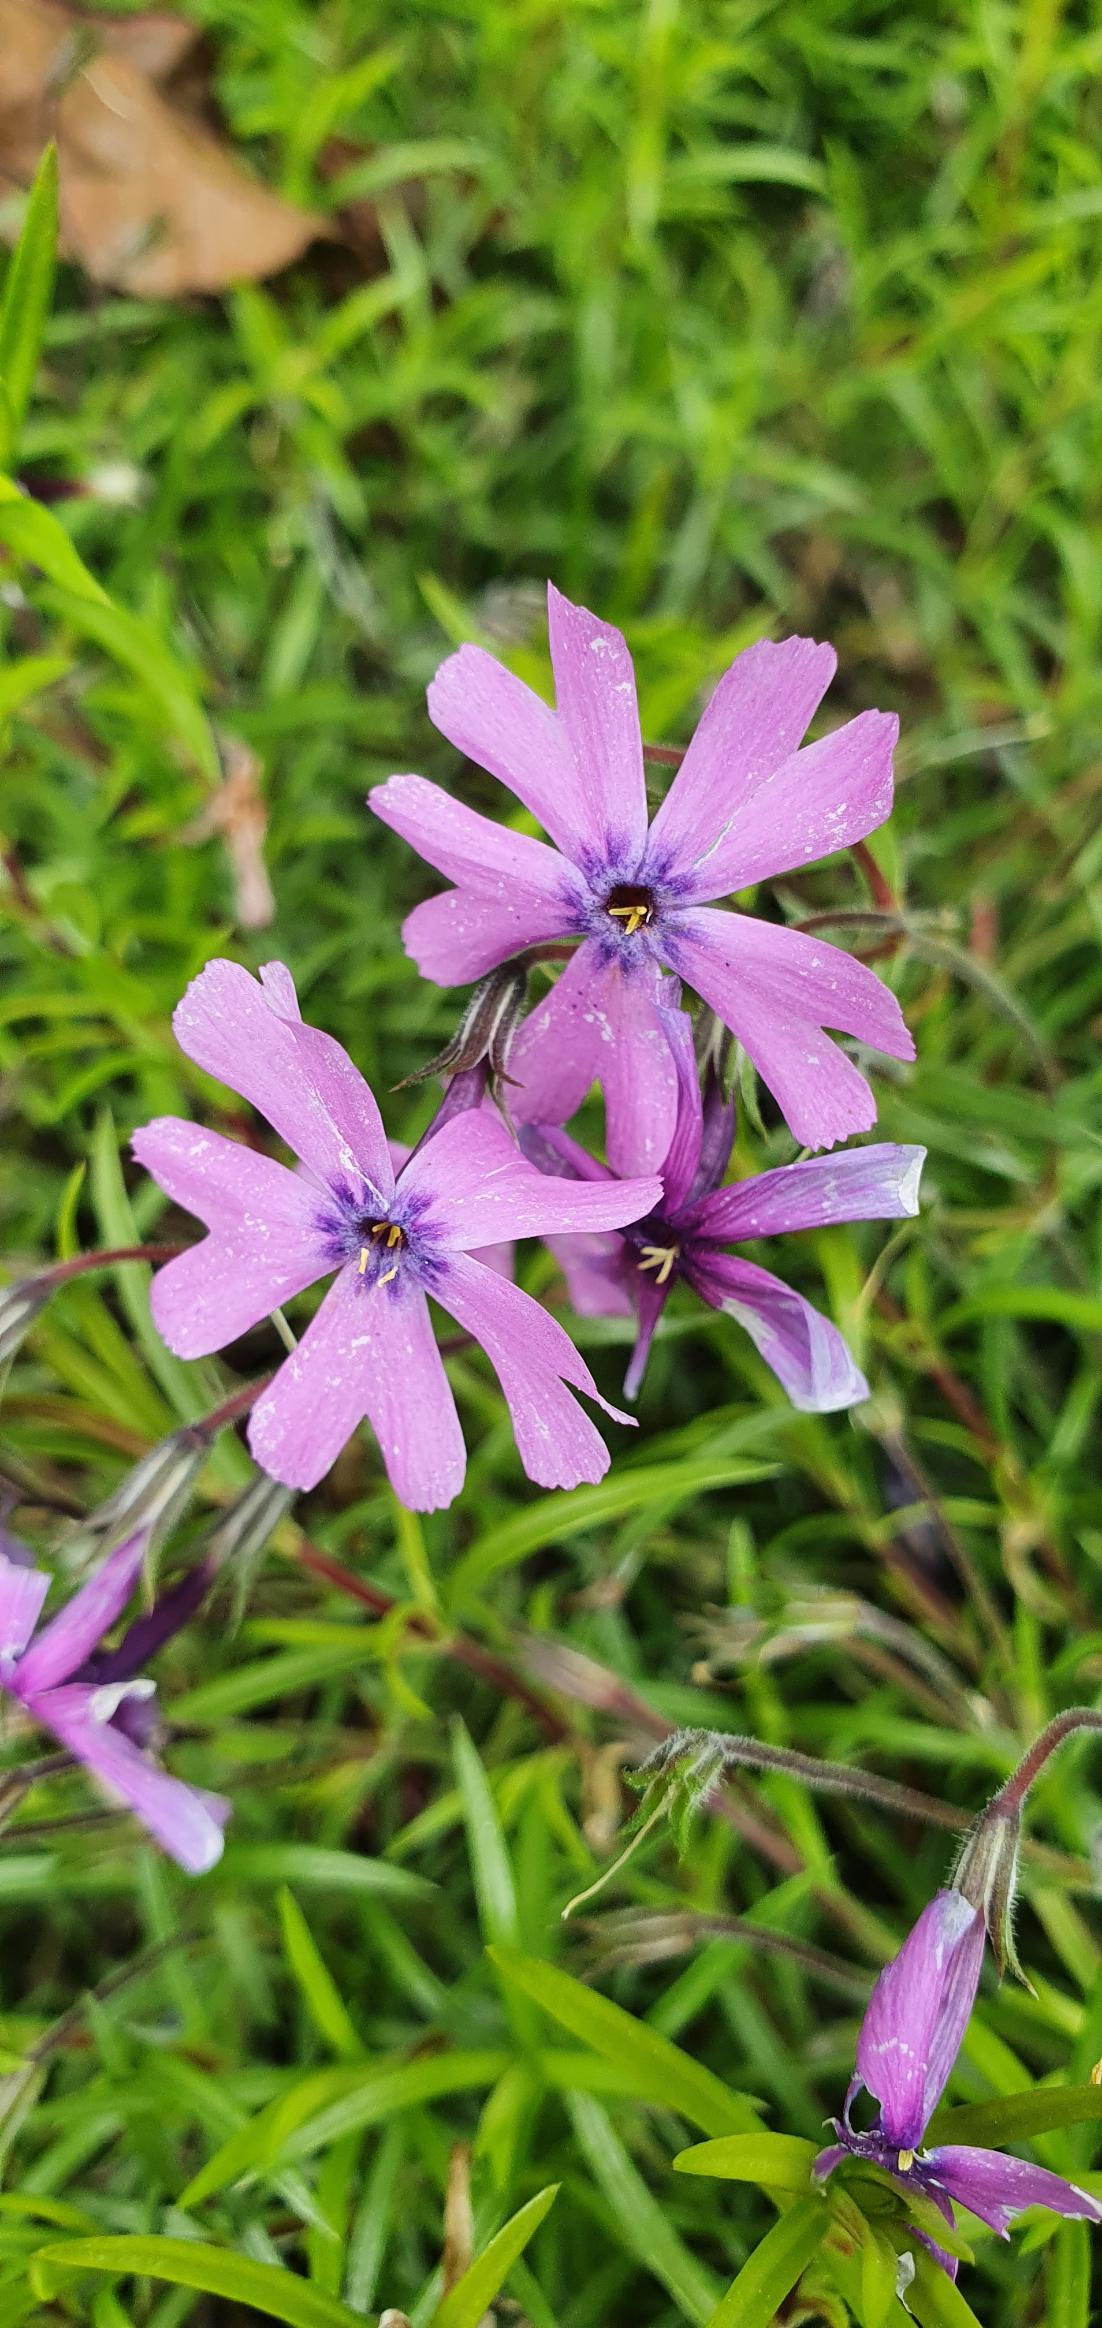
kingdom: Plantae
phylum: Tracheophyta
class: Magnoliopsida
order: Ericales
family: Polemoniaceae
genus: Phlox
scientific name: Phlox subulata
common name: Lyng-floks
